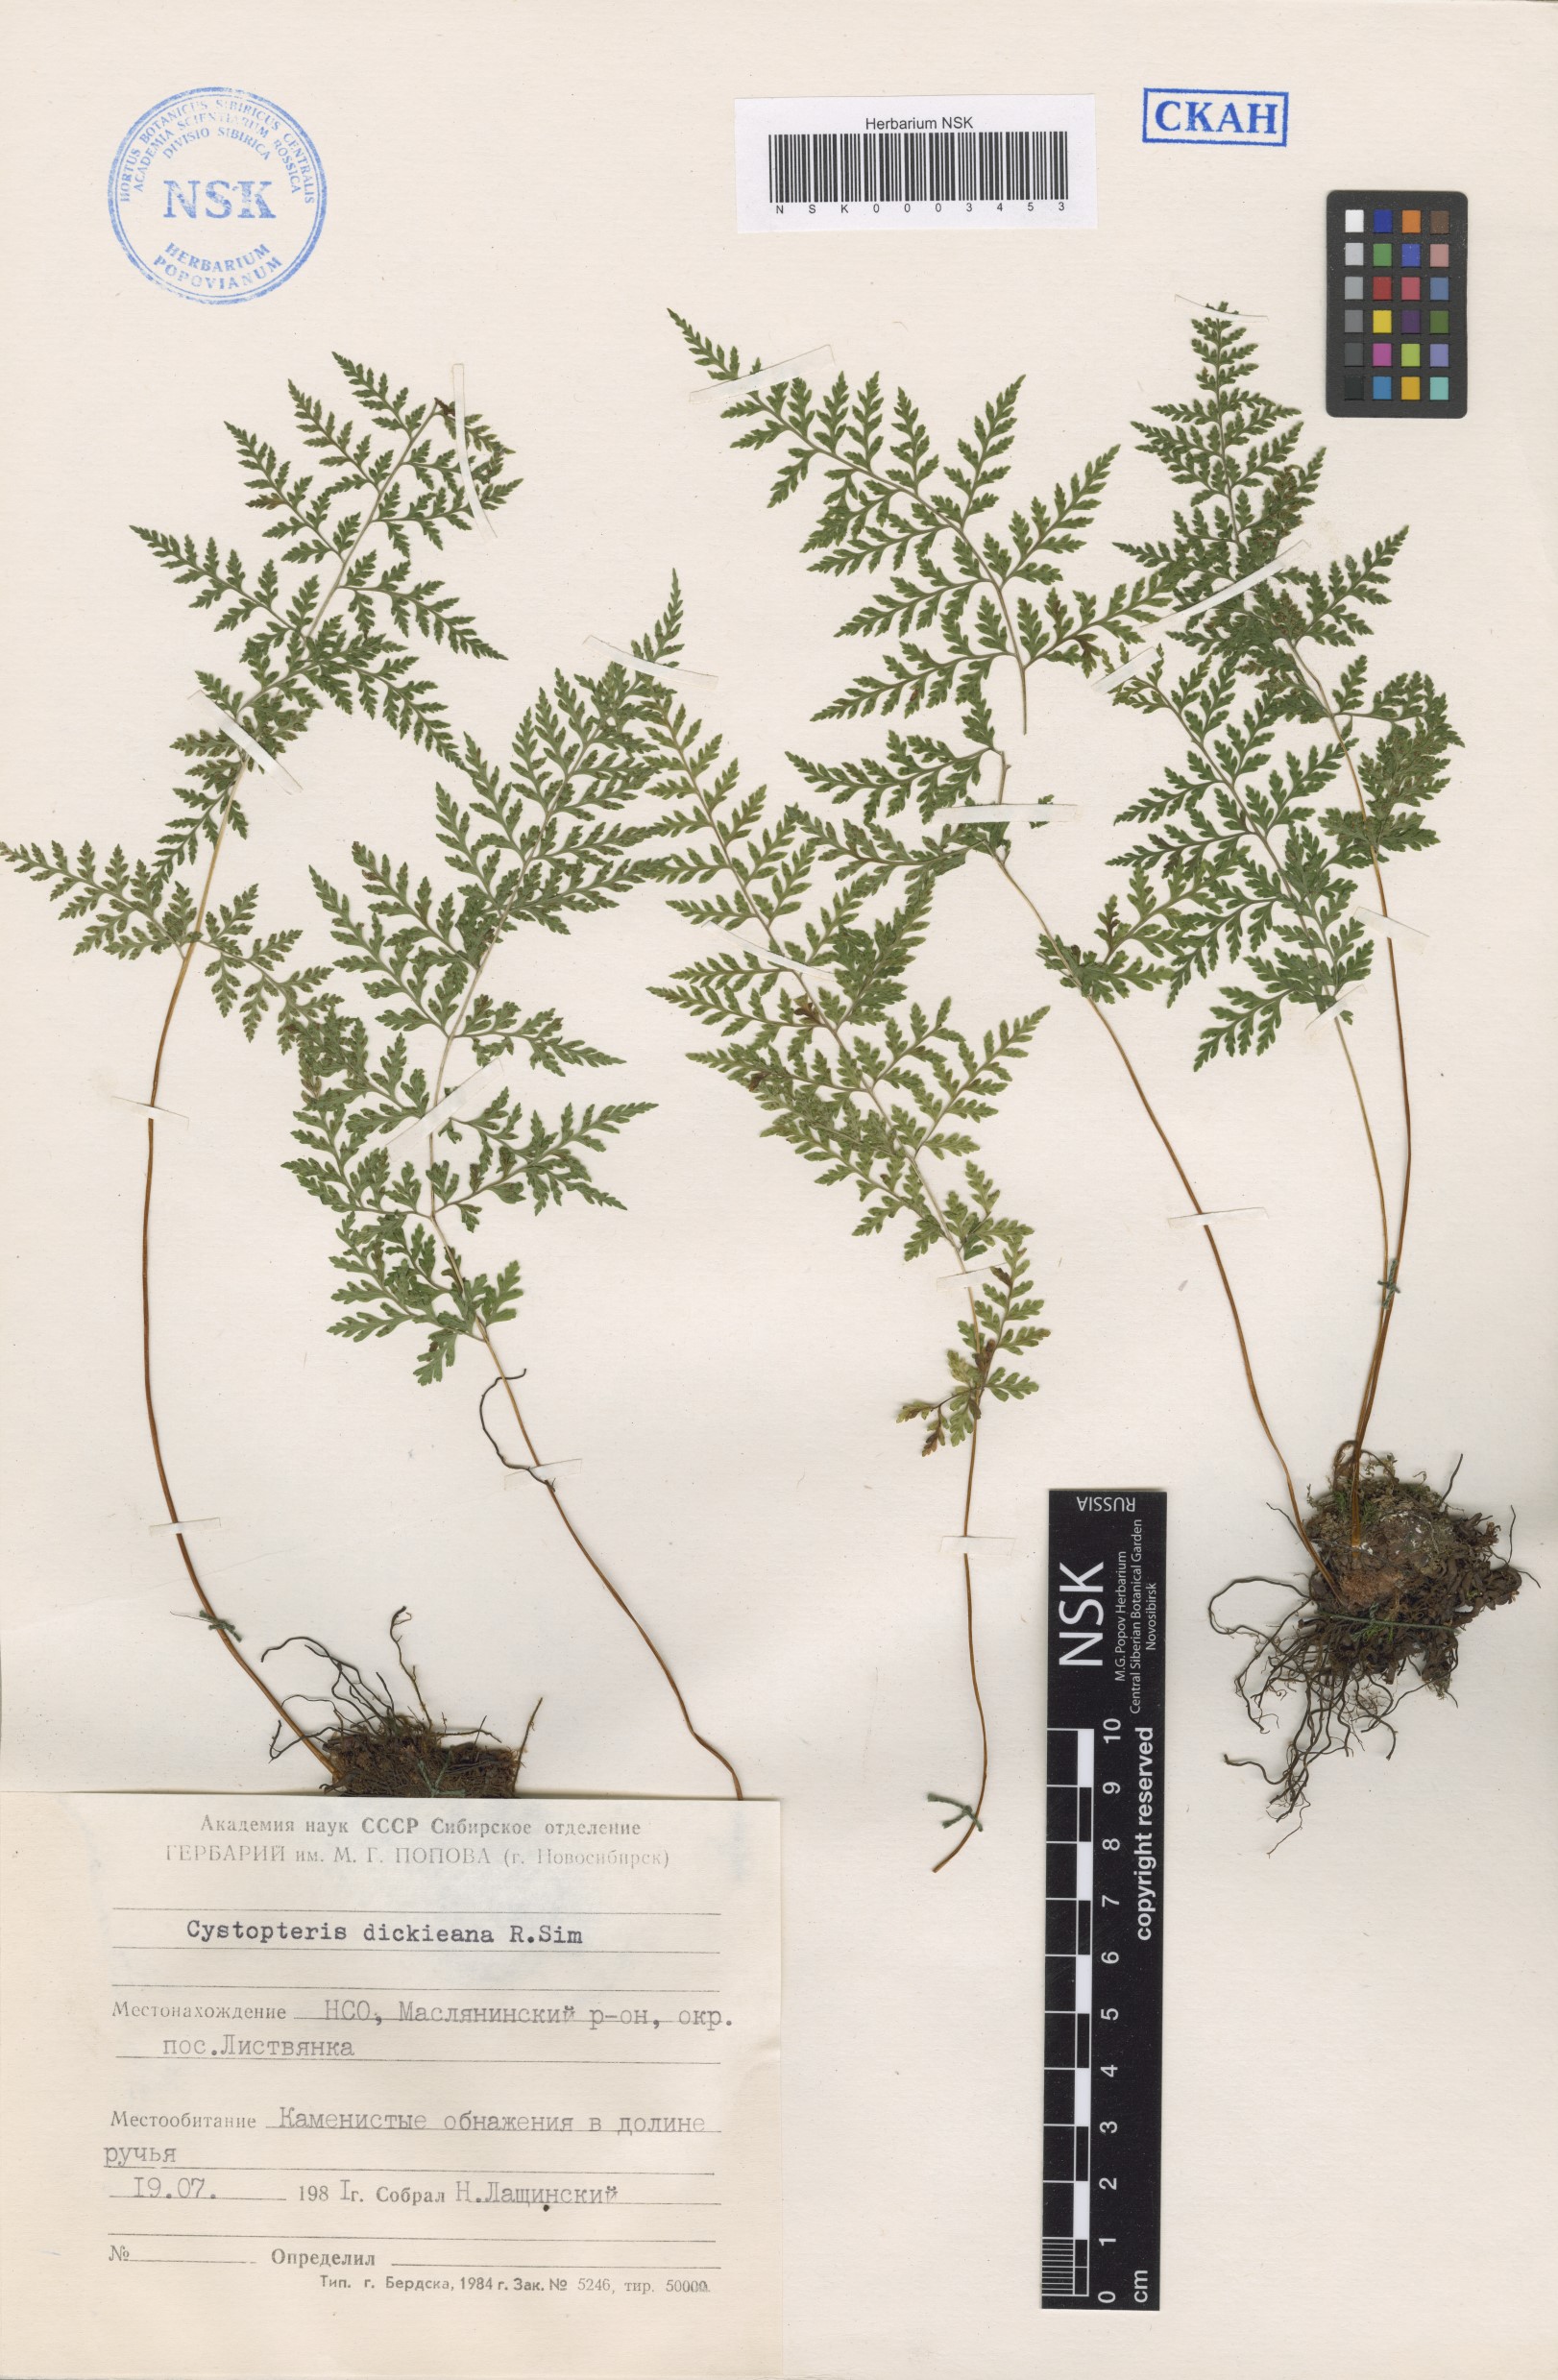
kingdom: Plantae
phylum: Tracheophyta
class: Polypodiopsida
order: Polypodiales
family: Cystopteridaceae
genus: Cystopteris
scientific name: Cystopteris dickieana
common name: Dickie's bladder-fern
